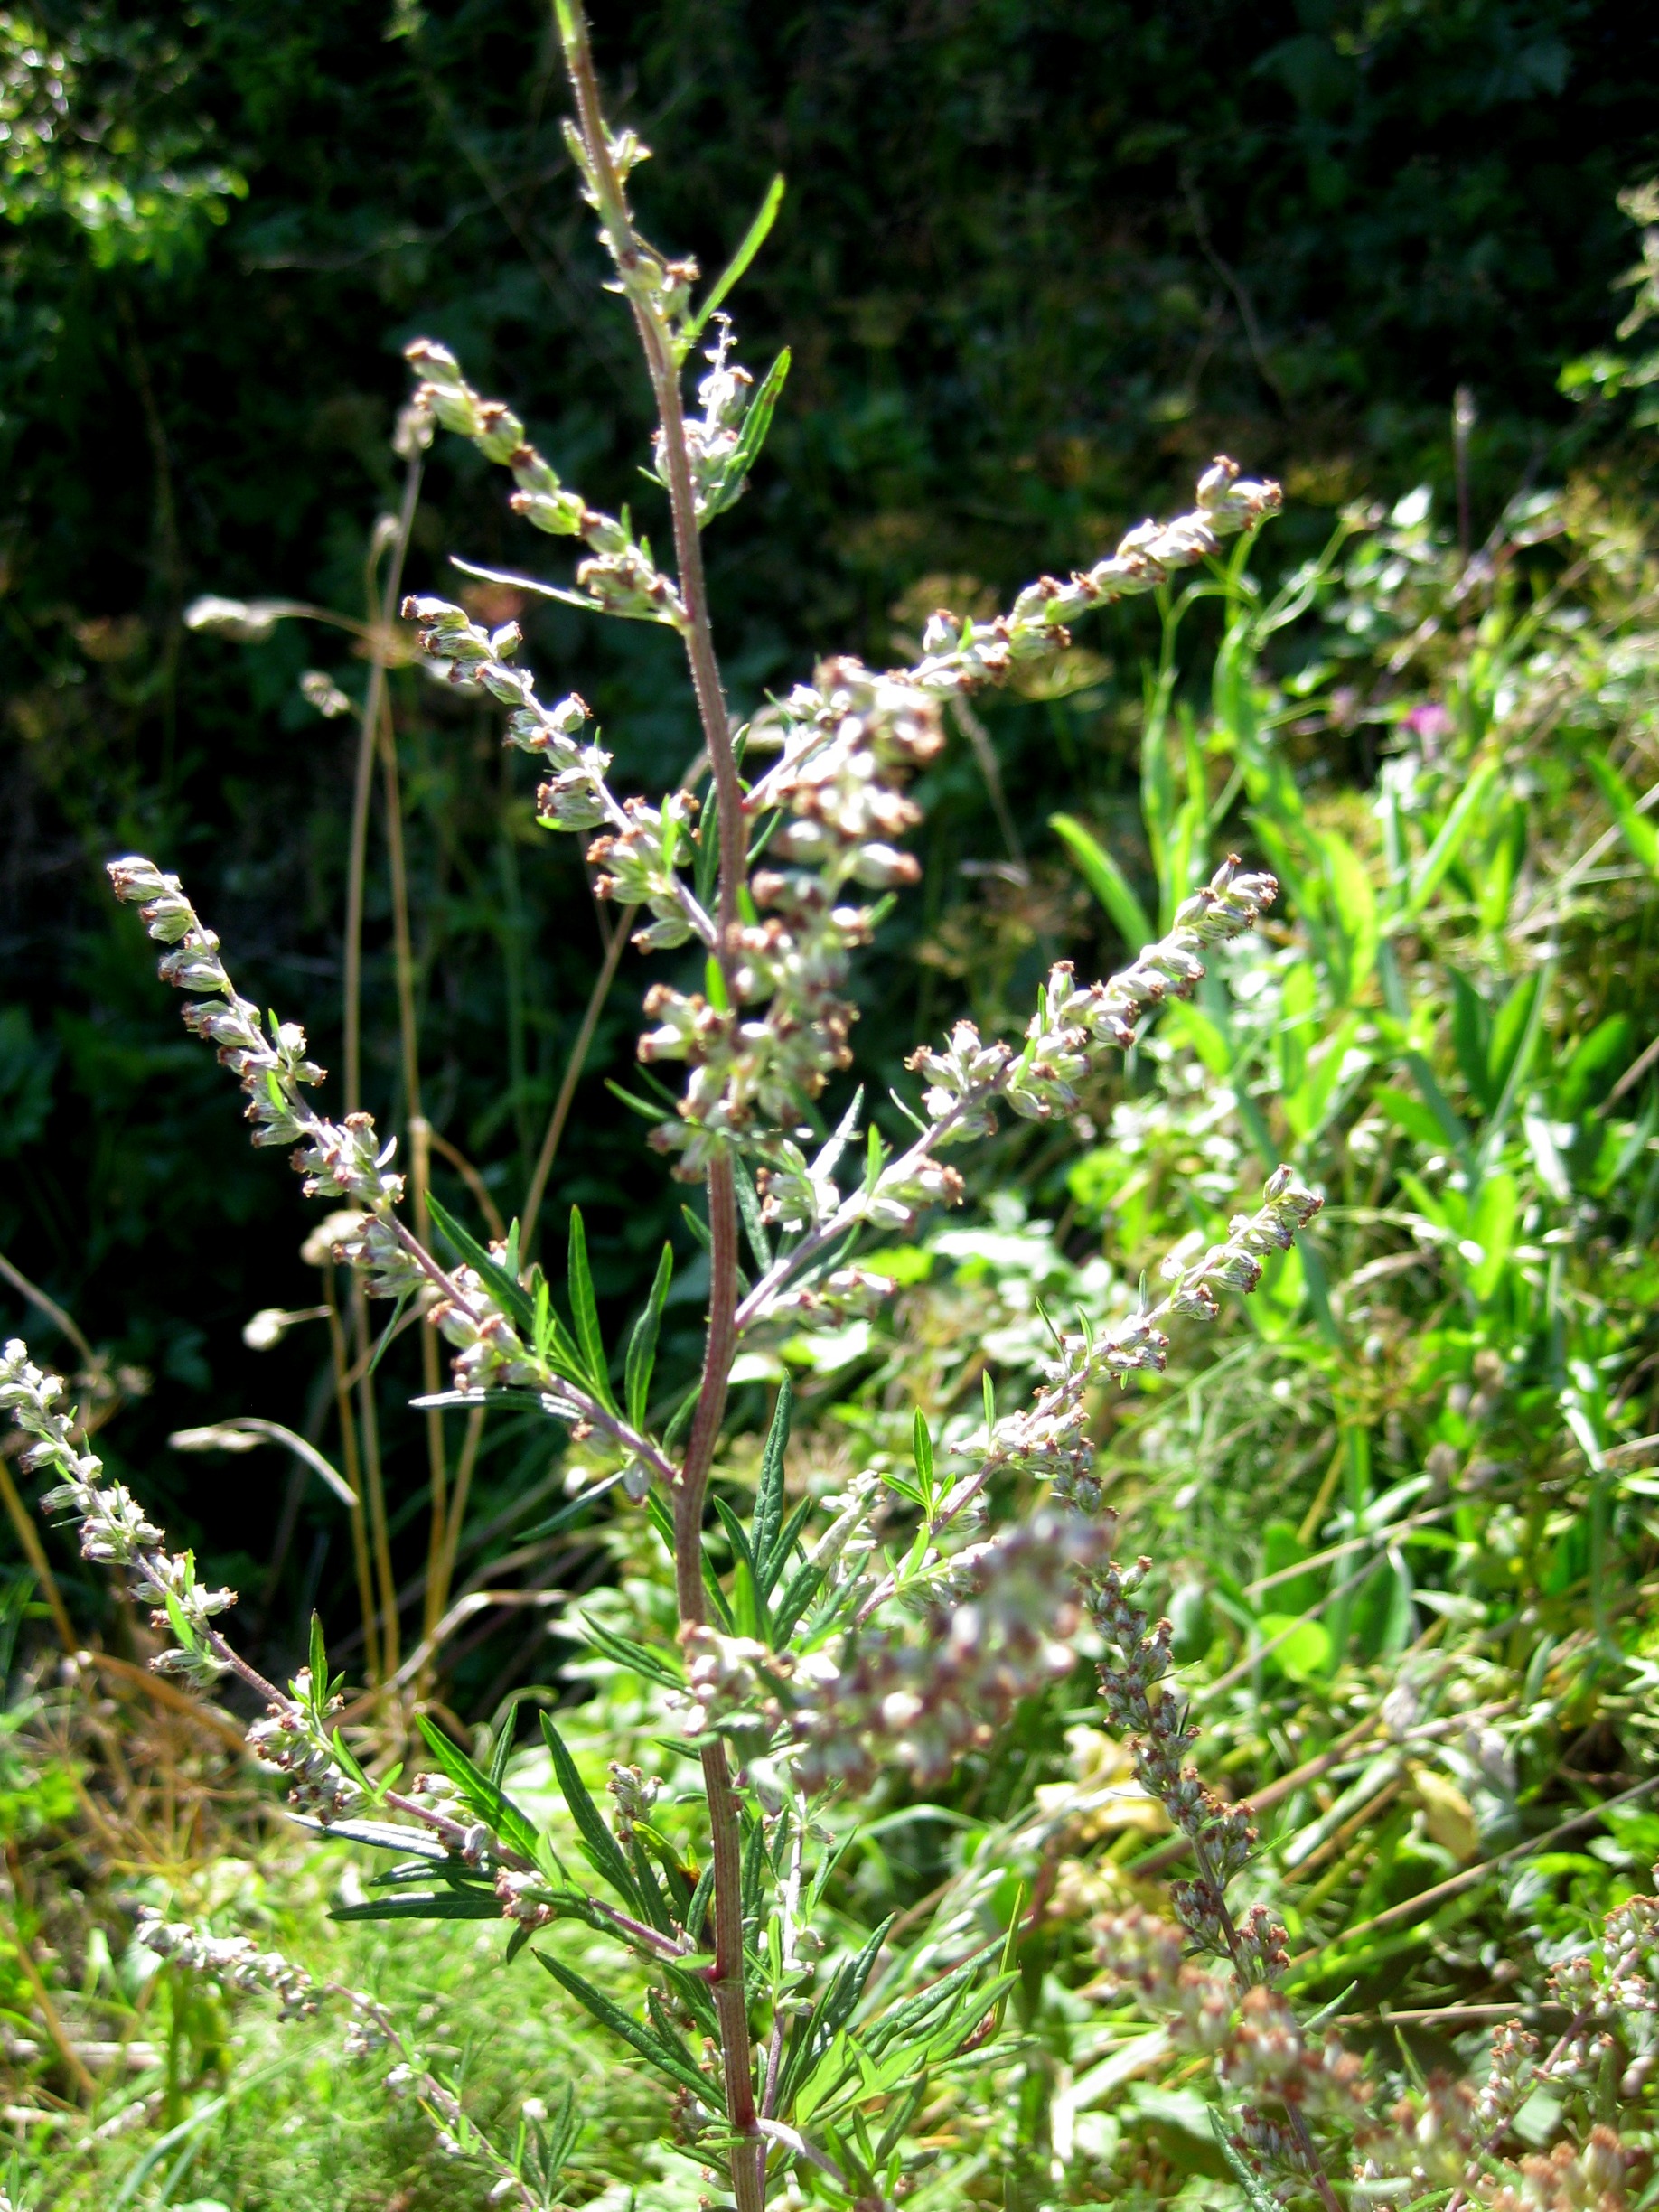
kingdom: Plantae
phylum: Tracheophyta
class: Magnoliopsida
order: Asterales
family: Asteraceae
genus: Artemisia
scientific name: Artemisia vulgaris
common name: Grå-bynke
